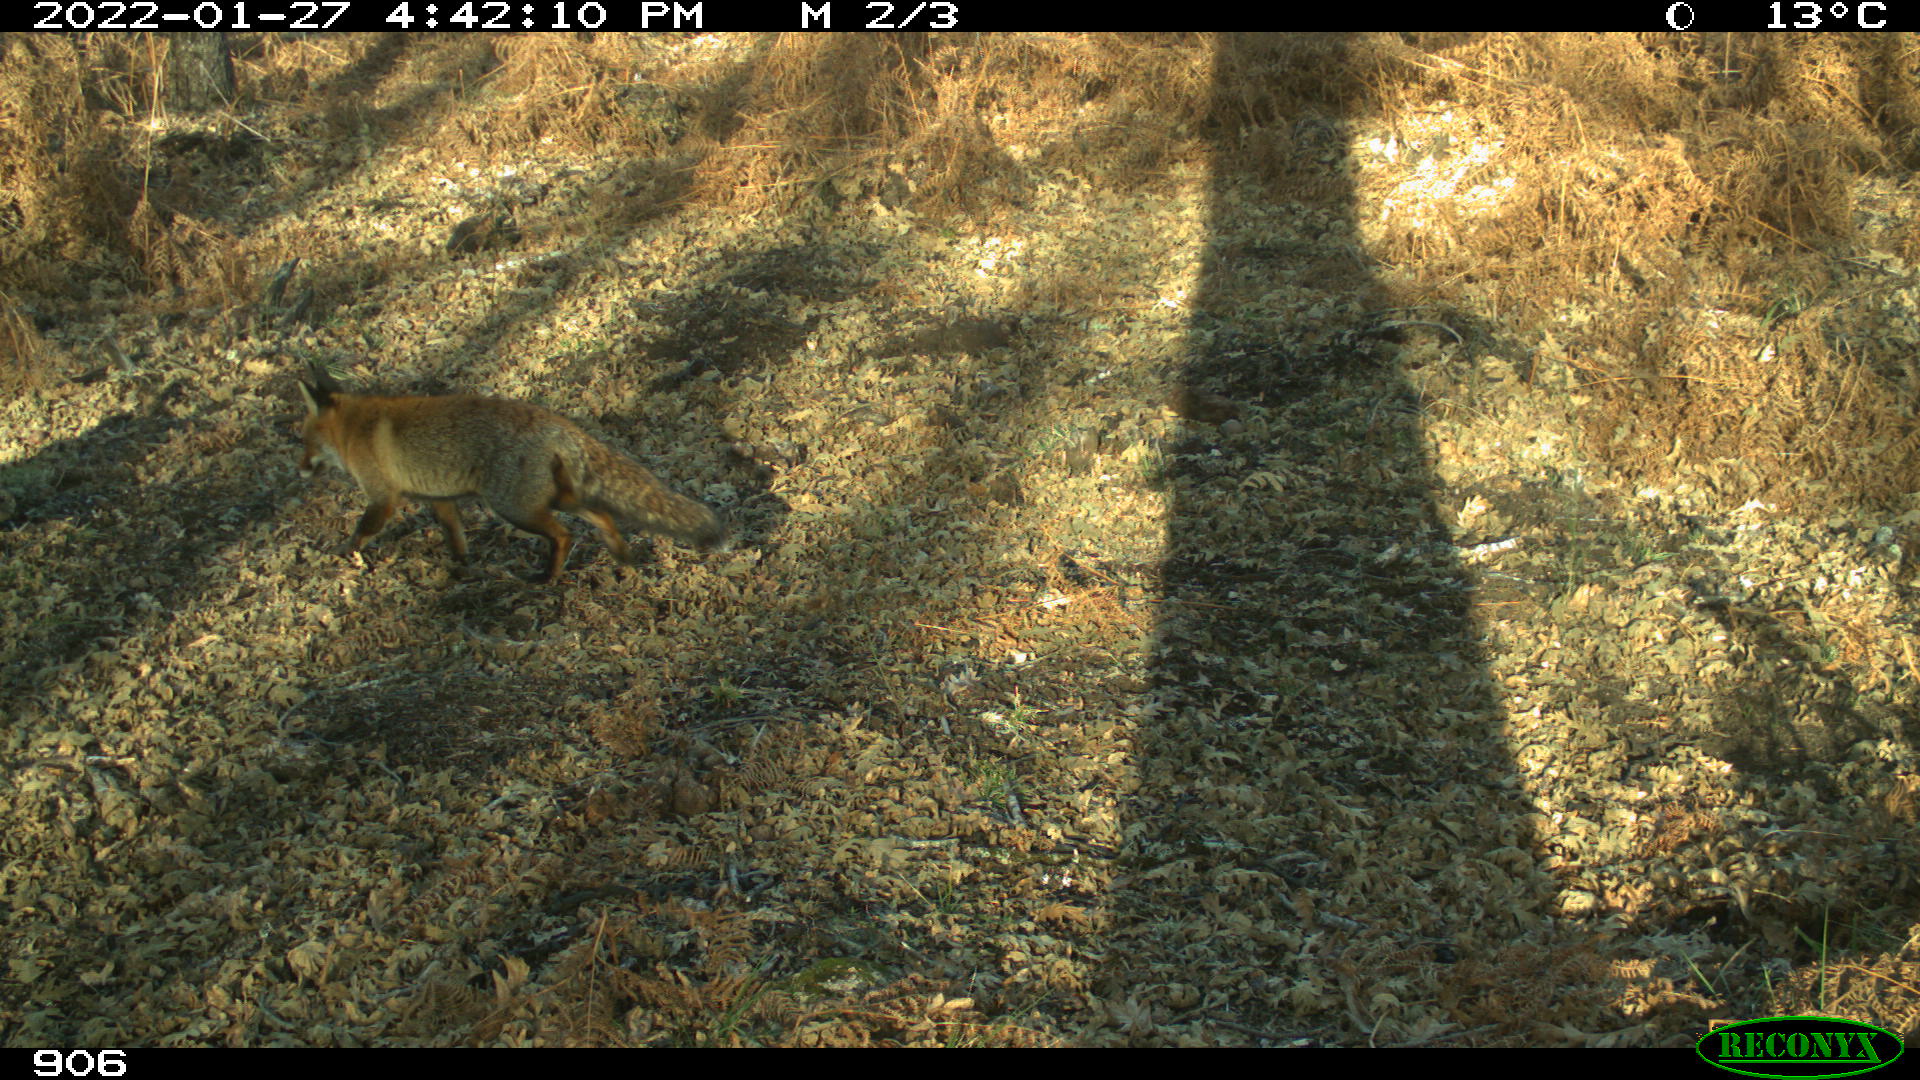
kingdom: Animalia
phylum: Chordata
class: Mammalia
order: Carnivora
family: Canidae
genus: Vulpes
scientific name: Vulpes vulpes
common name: Red fox
